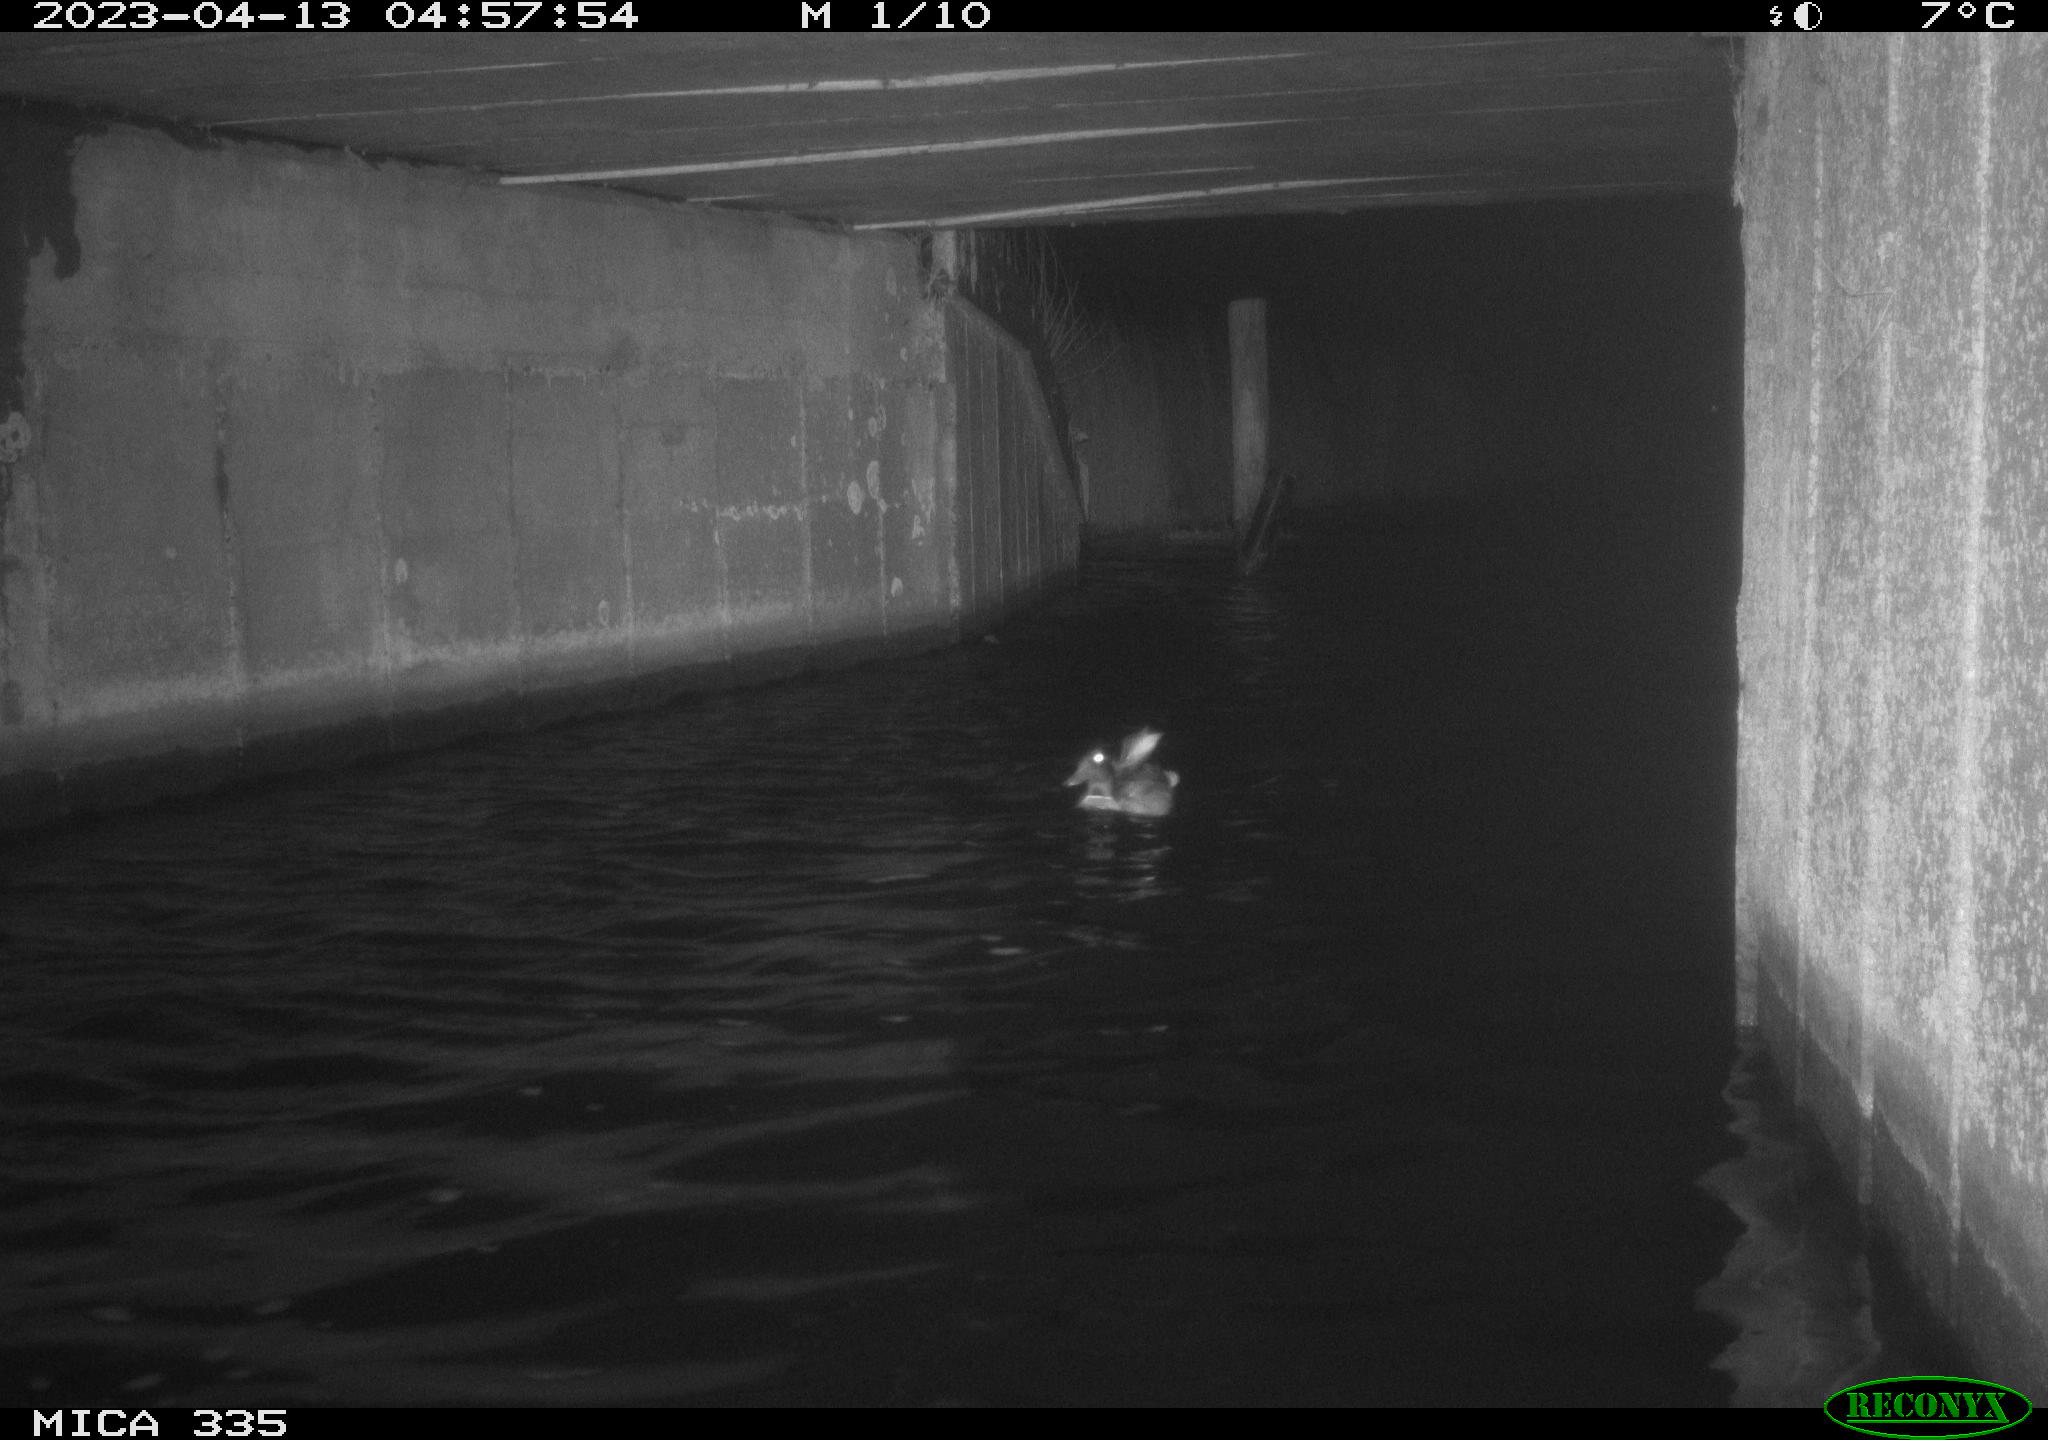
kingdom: Animalia
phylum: Chordata
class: Aves
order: Anseriformes
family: Anatidae
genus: Anas
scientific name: Anas
